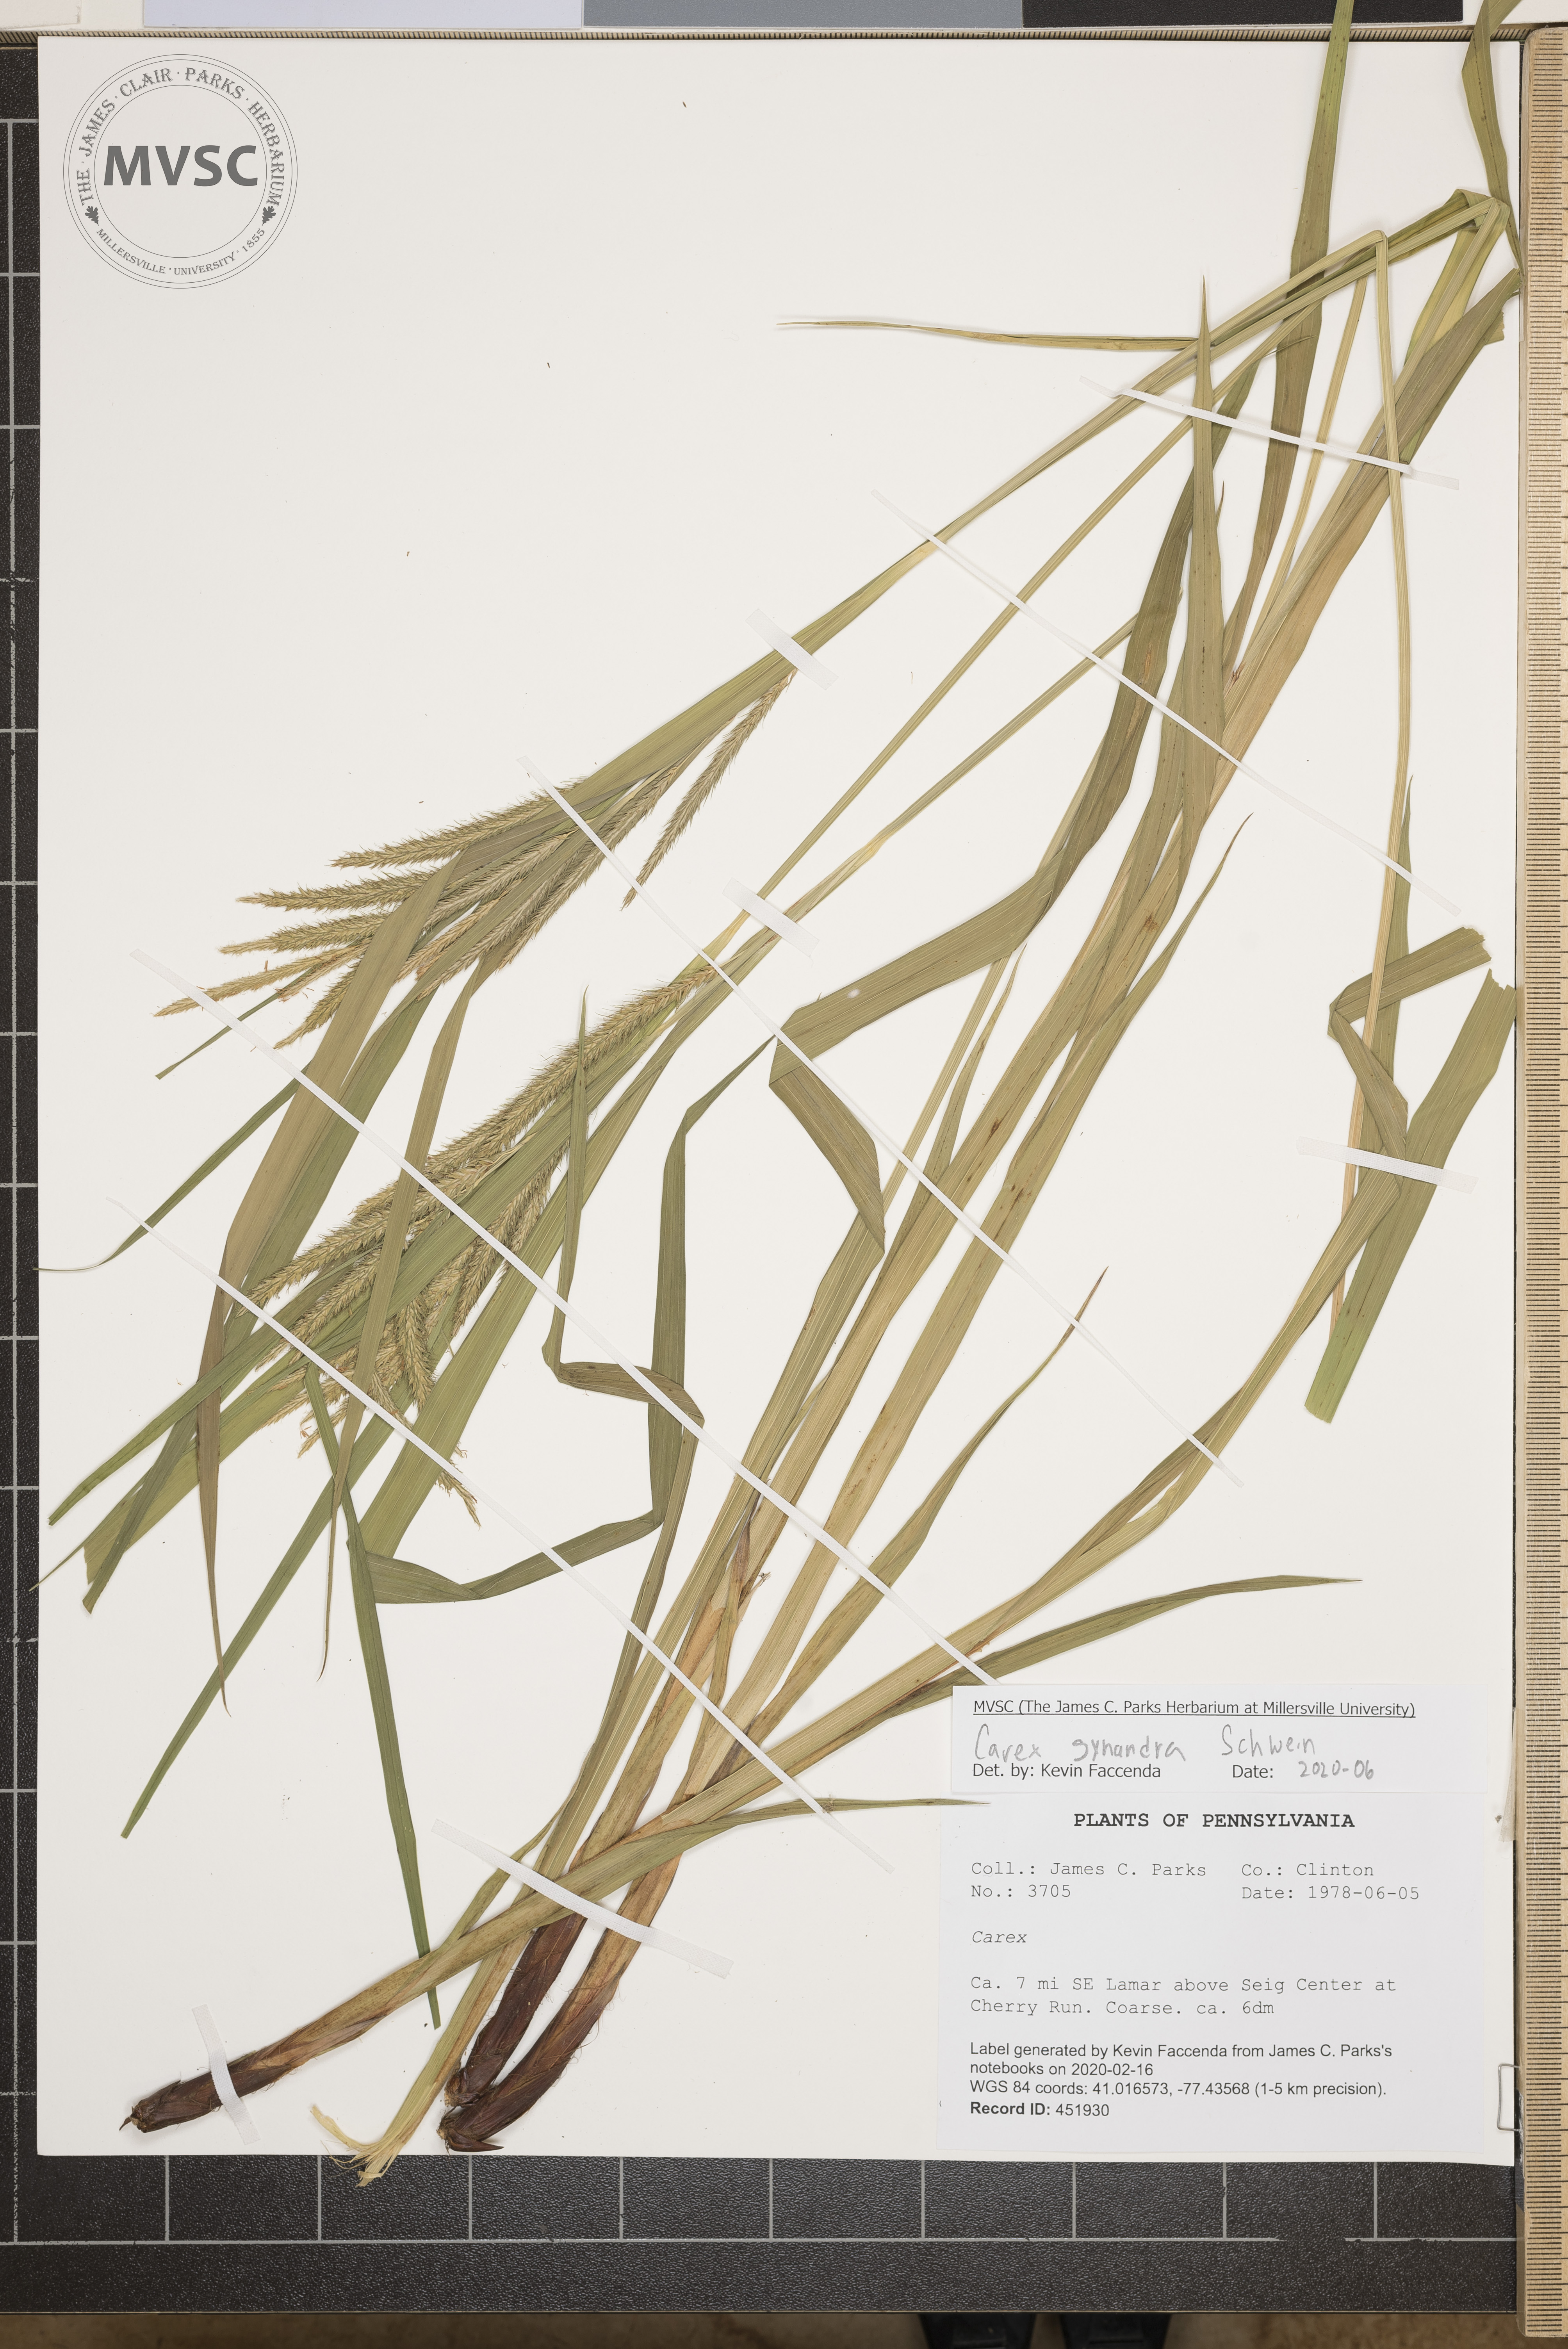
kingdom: Plantae
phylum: Tracheophyta
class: Liliopsida
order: Poales
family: Cyperaceae
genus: Carex
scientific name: Carex gynandra
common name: Nodding sedge
